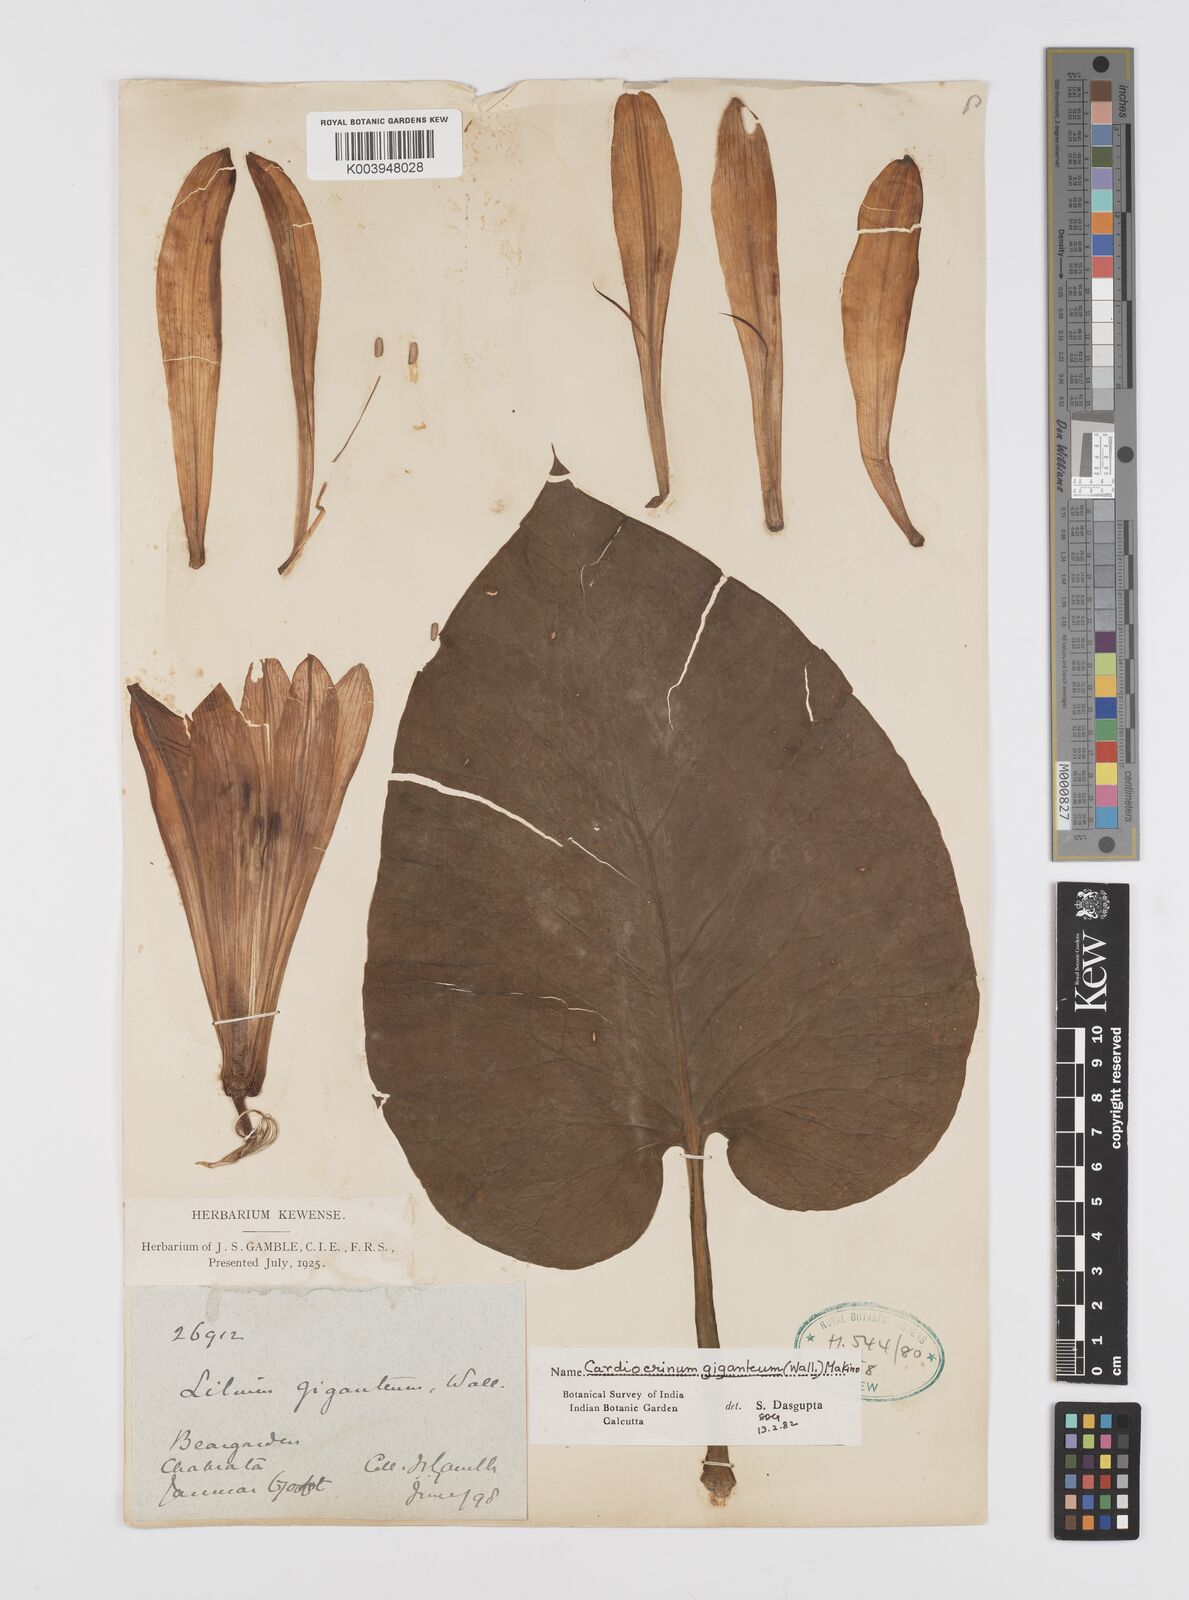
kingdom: Plantae
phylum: Tracheophyta
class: Liliopsida
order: Liliales
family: Liliaceae
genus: Cardiocrinum
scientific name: Cardiocrinum giganteum
